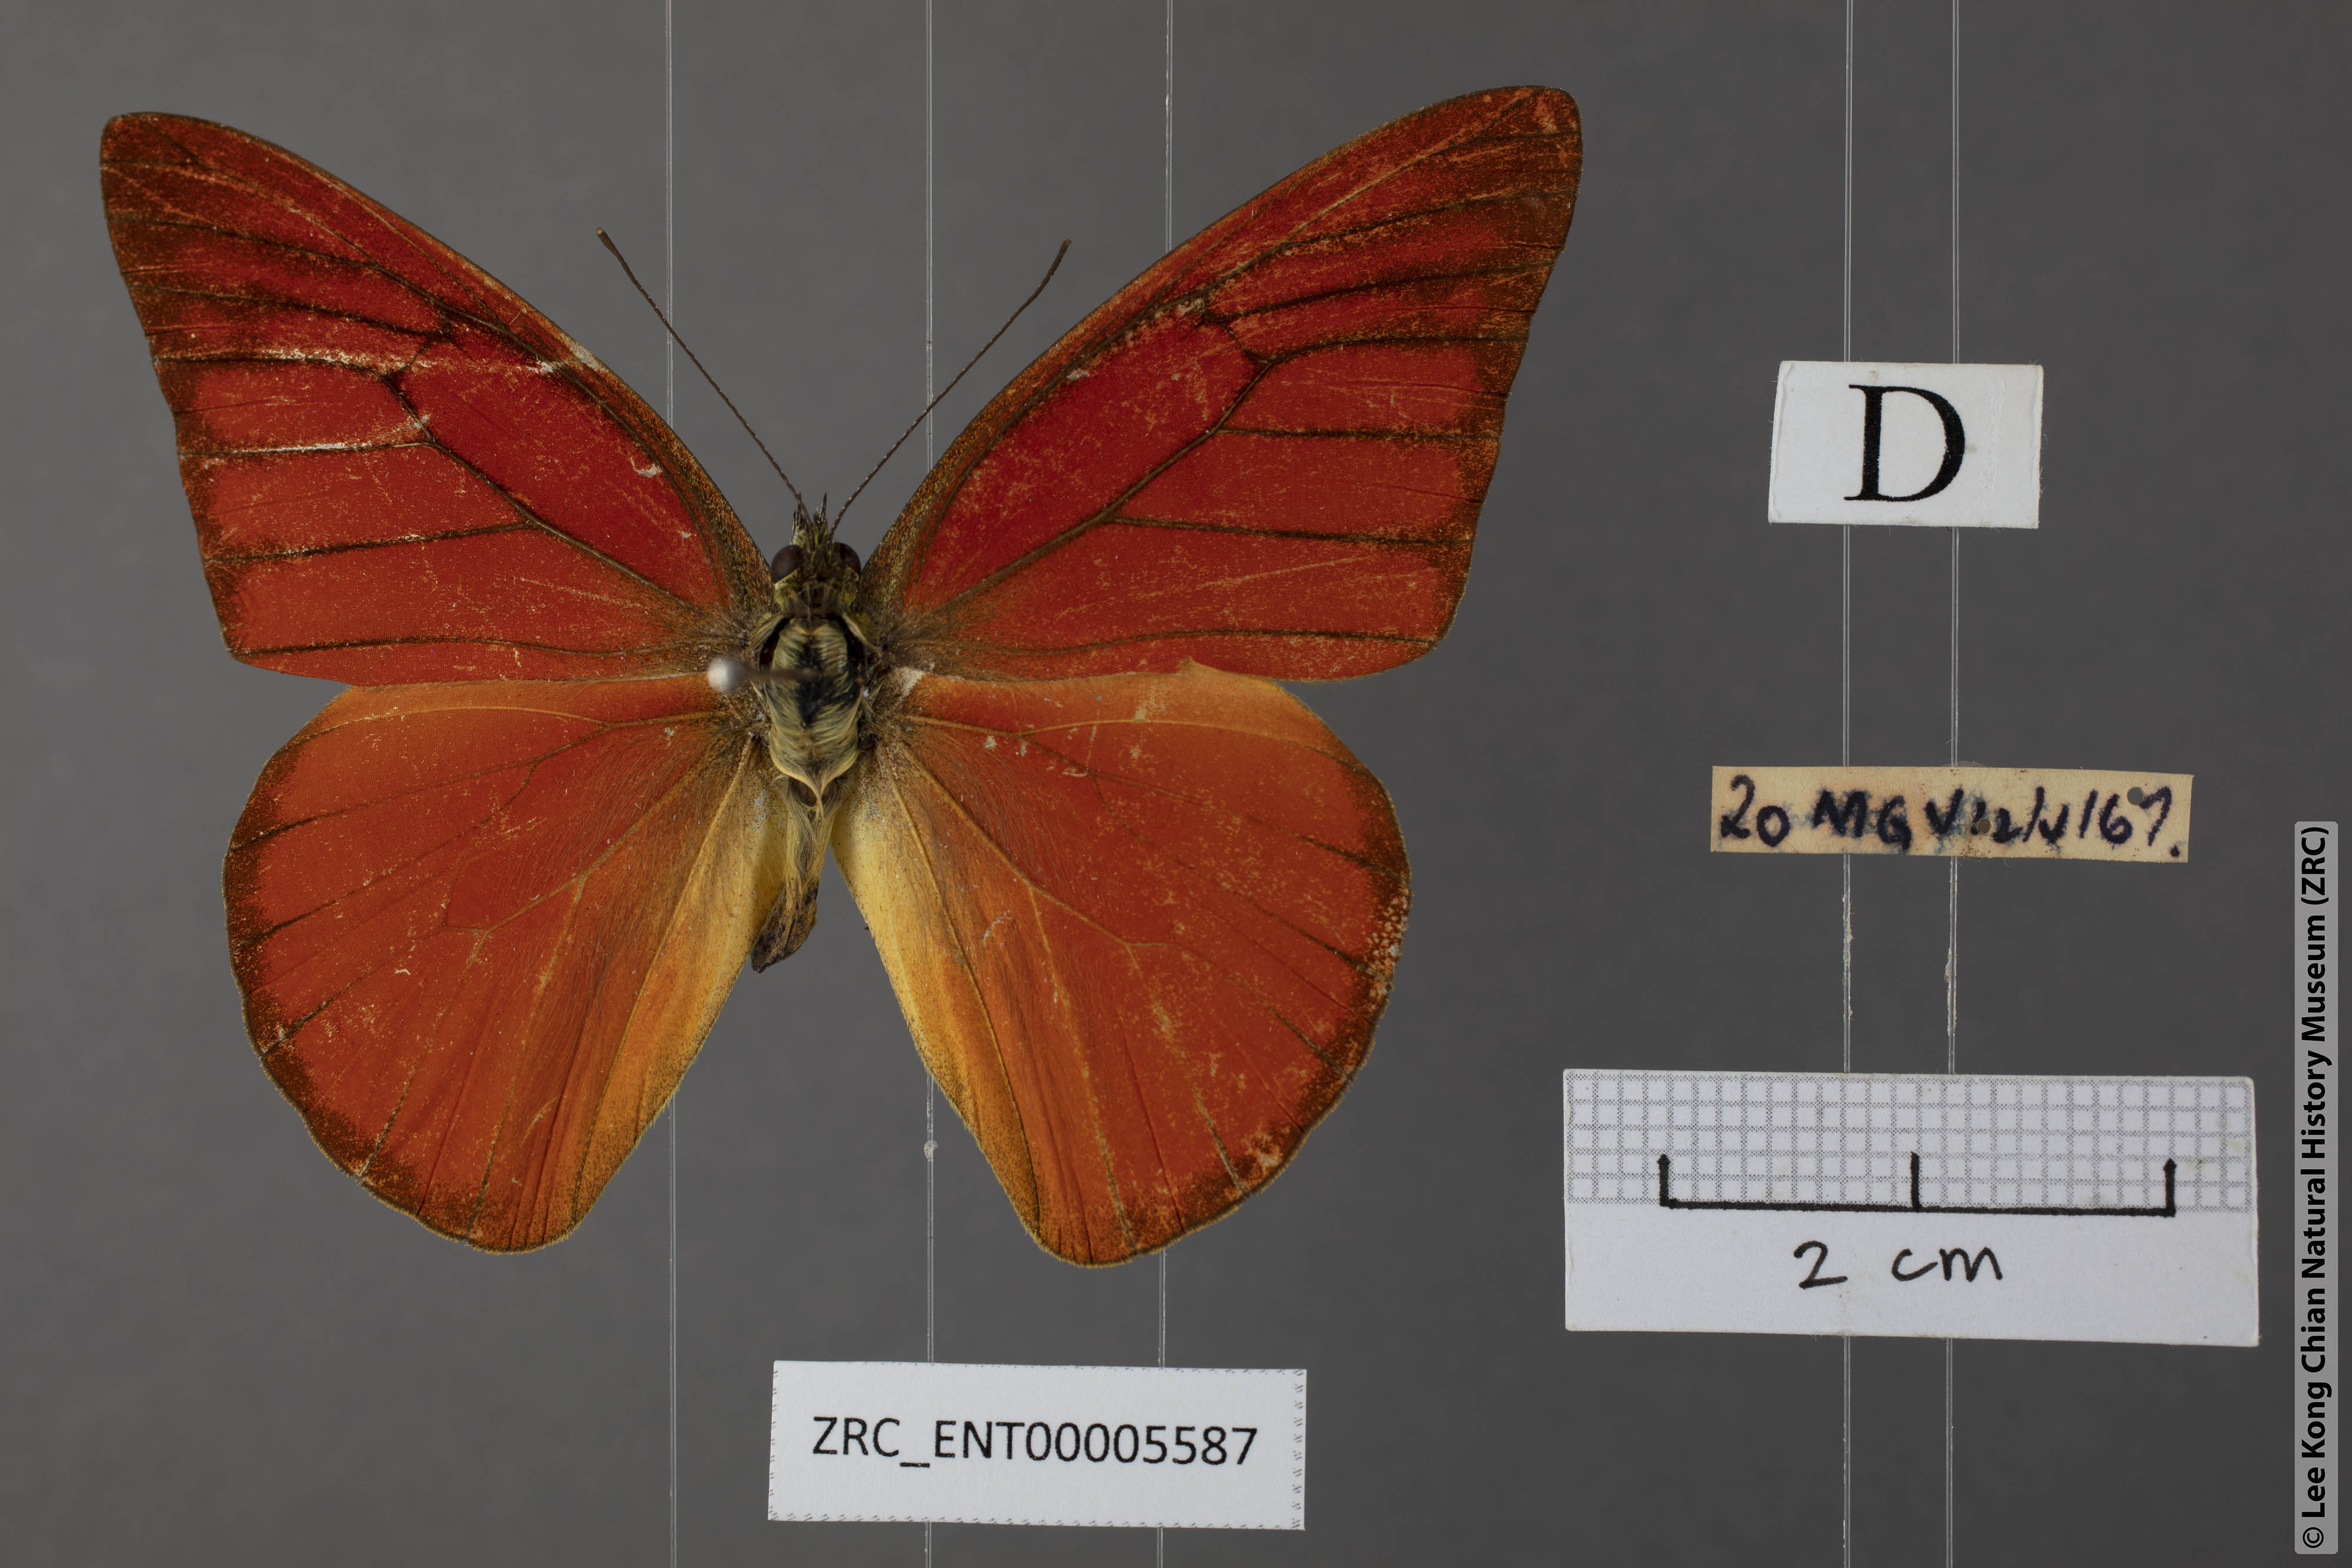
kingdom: Animalia
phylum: Arthropoda
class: Insecta
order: Lepidoptera
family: Pieridae
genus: Appias
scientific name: Appias nero
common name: Orange albatross
